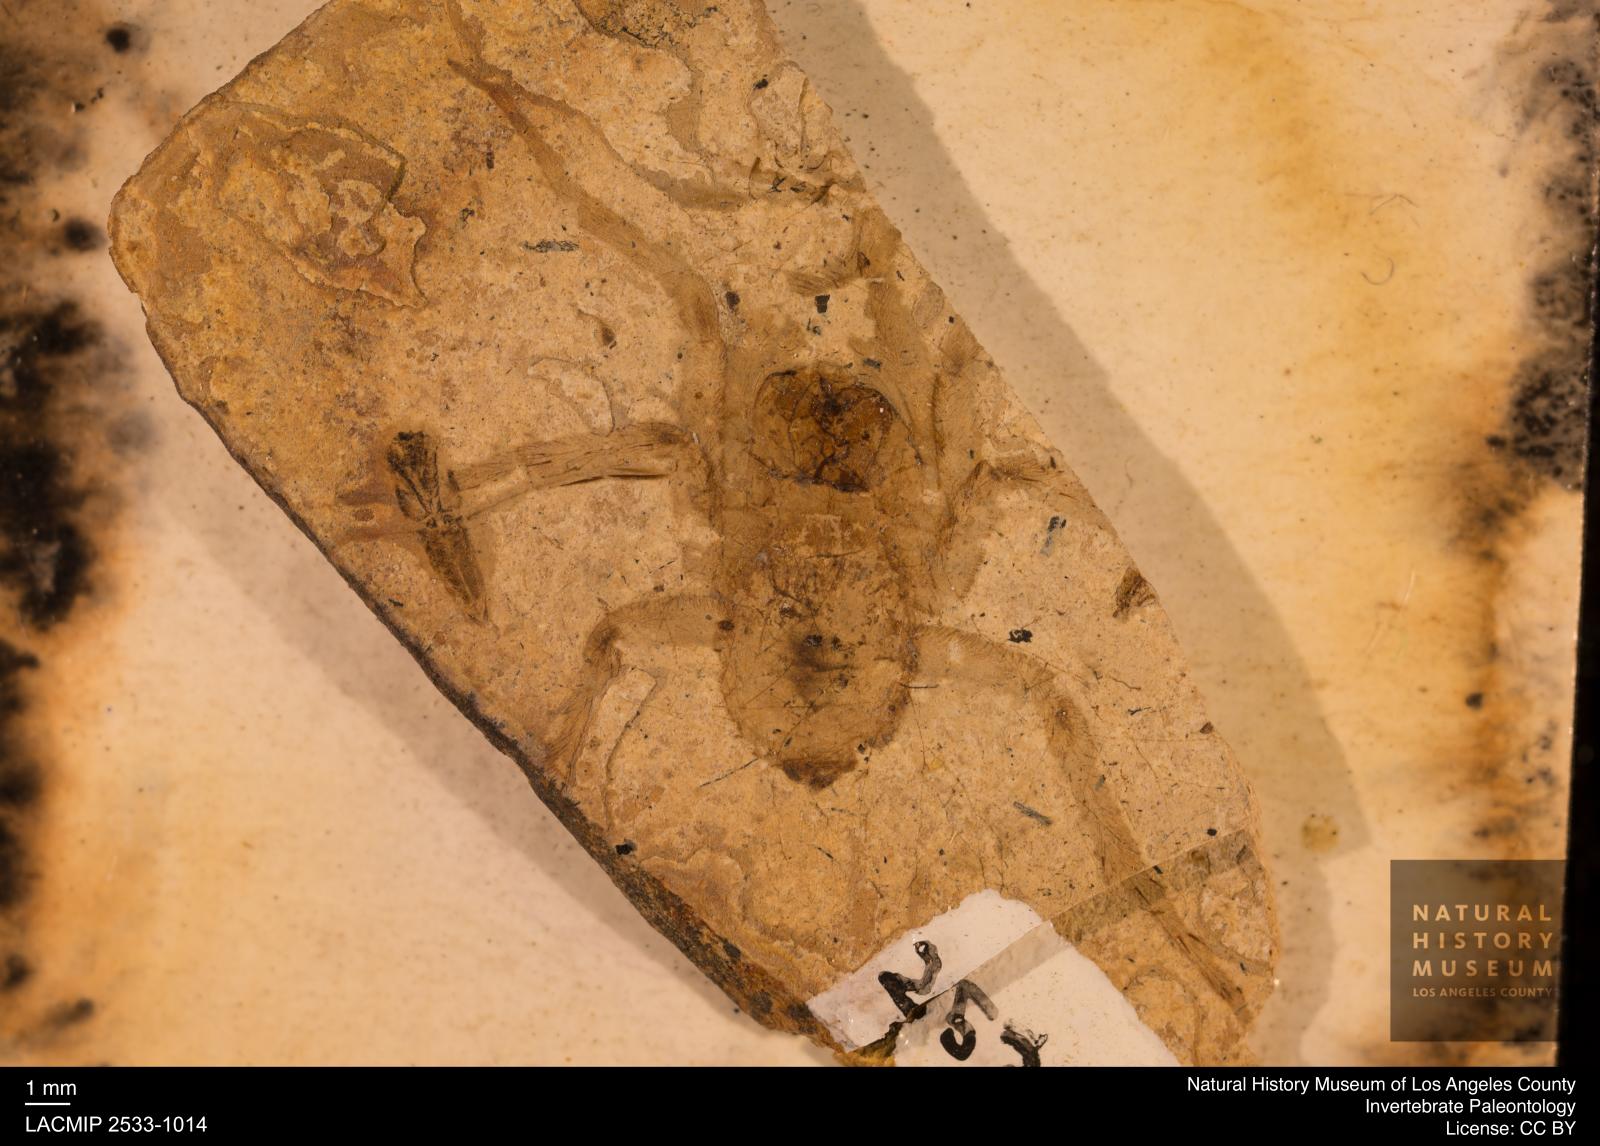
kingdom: Animalia
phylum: Arthropoda
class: Arachnida
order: Araneae
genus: Elvina
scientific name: Elvina Argyroneta antiqua
